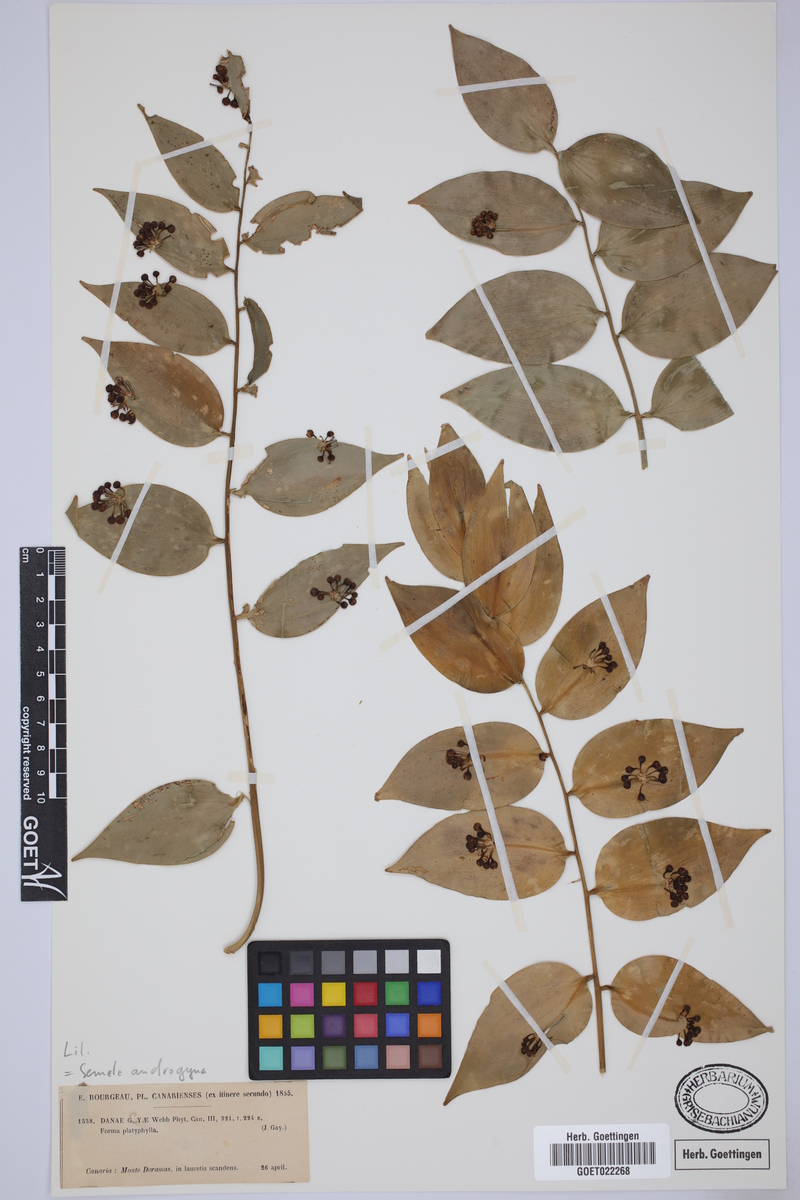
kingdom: Plantae
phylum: Tracheophyta
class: Liliopsida
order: Asparagales
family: Asparagaceae
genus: Semele
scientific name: Semele androgyna
